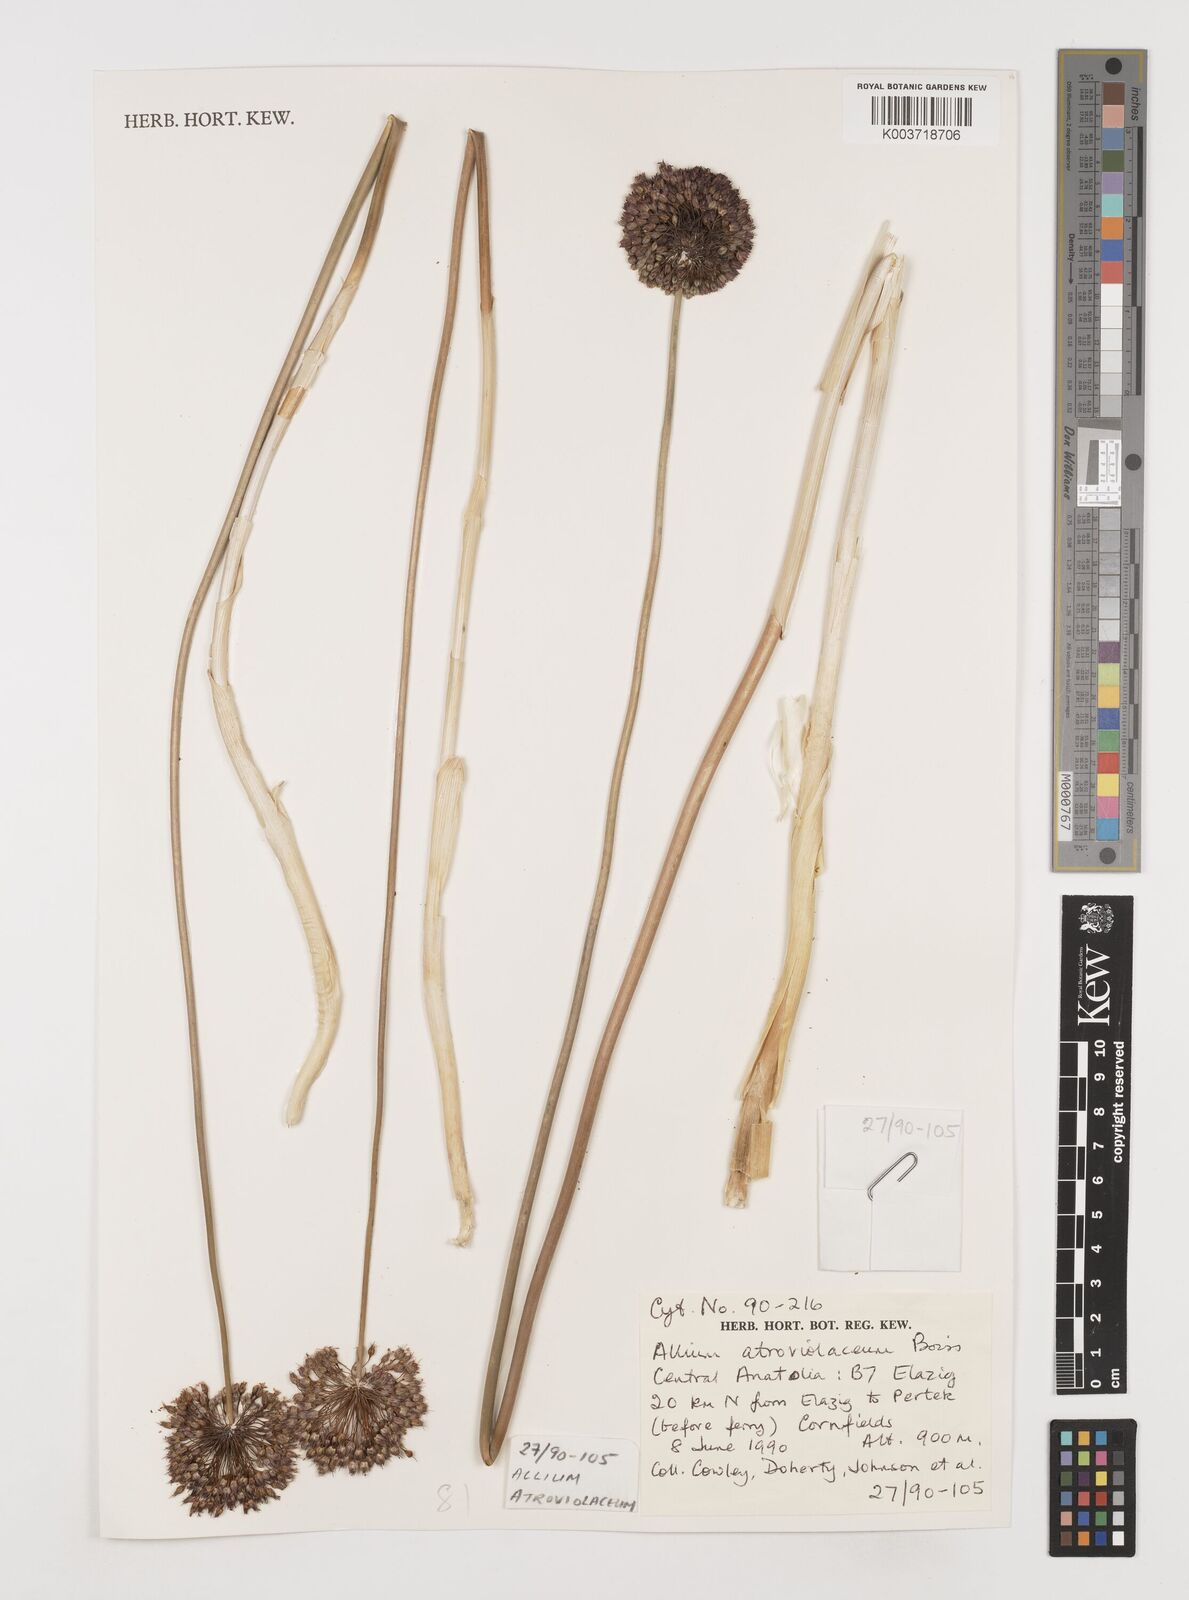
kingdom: Plantae
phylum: Tracheophyta
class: Liliopsida
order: Asparagales
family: Amaryllidaceae
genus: Allium
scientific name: Allium atroviolaceum
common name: Broadleaf wild leek
